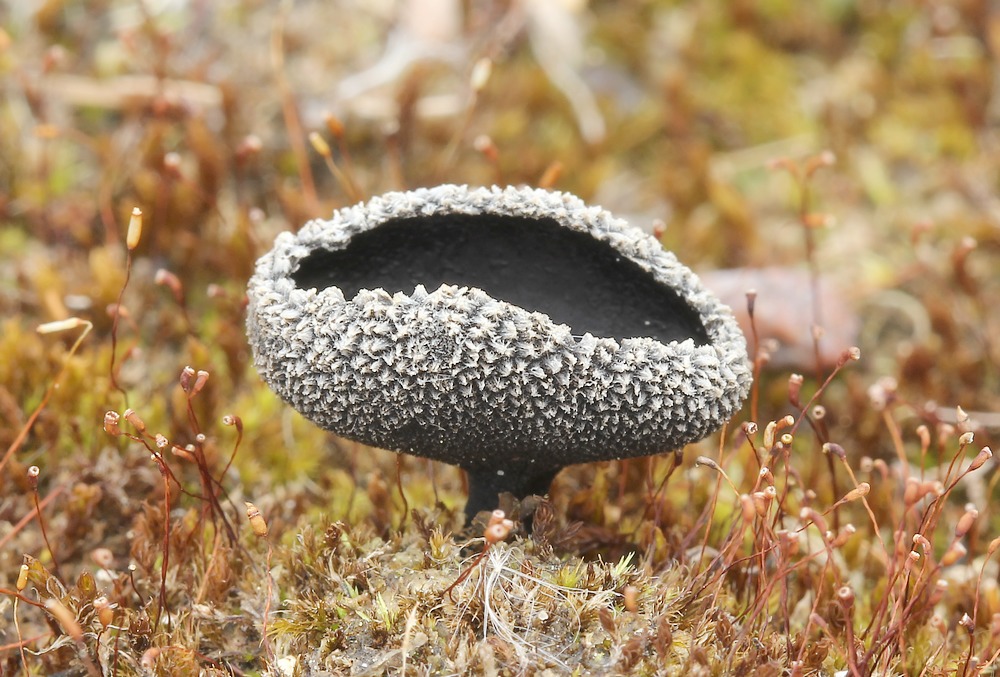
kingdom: Fungi
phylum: Ascomycota
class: Pezizomycetes
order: Pezizales
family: Helvellaceae
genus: Helvella
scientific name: Helvella corium
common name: pile-foldhat
